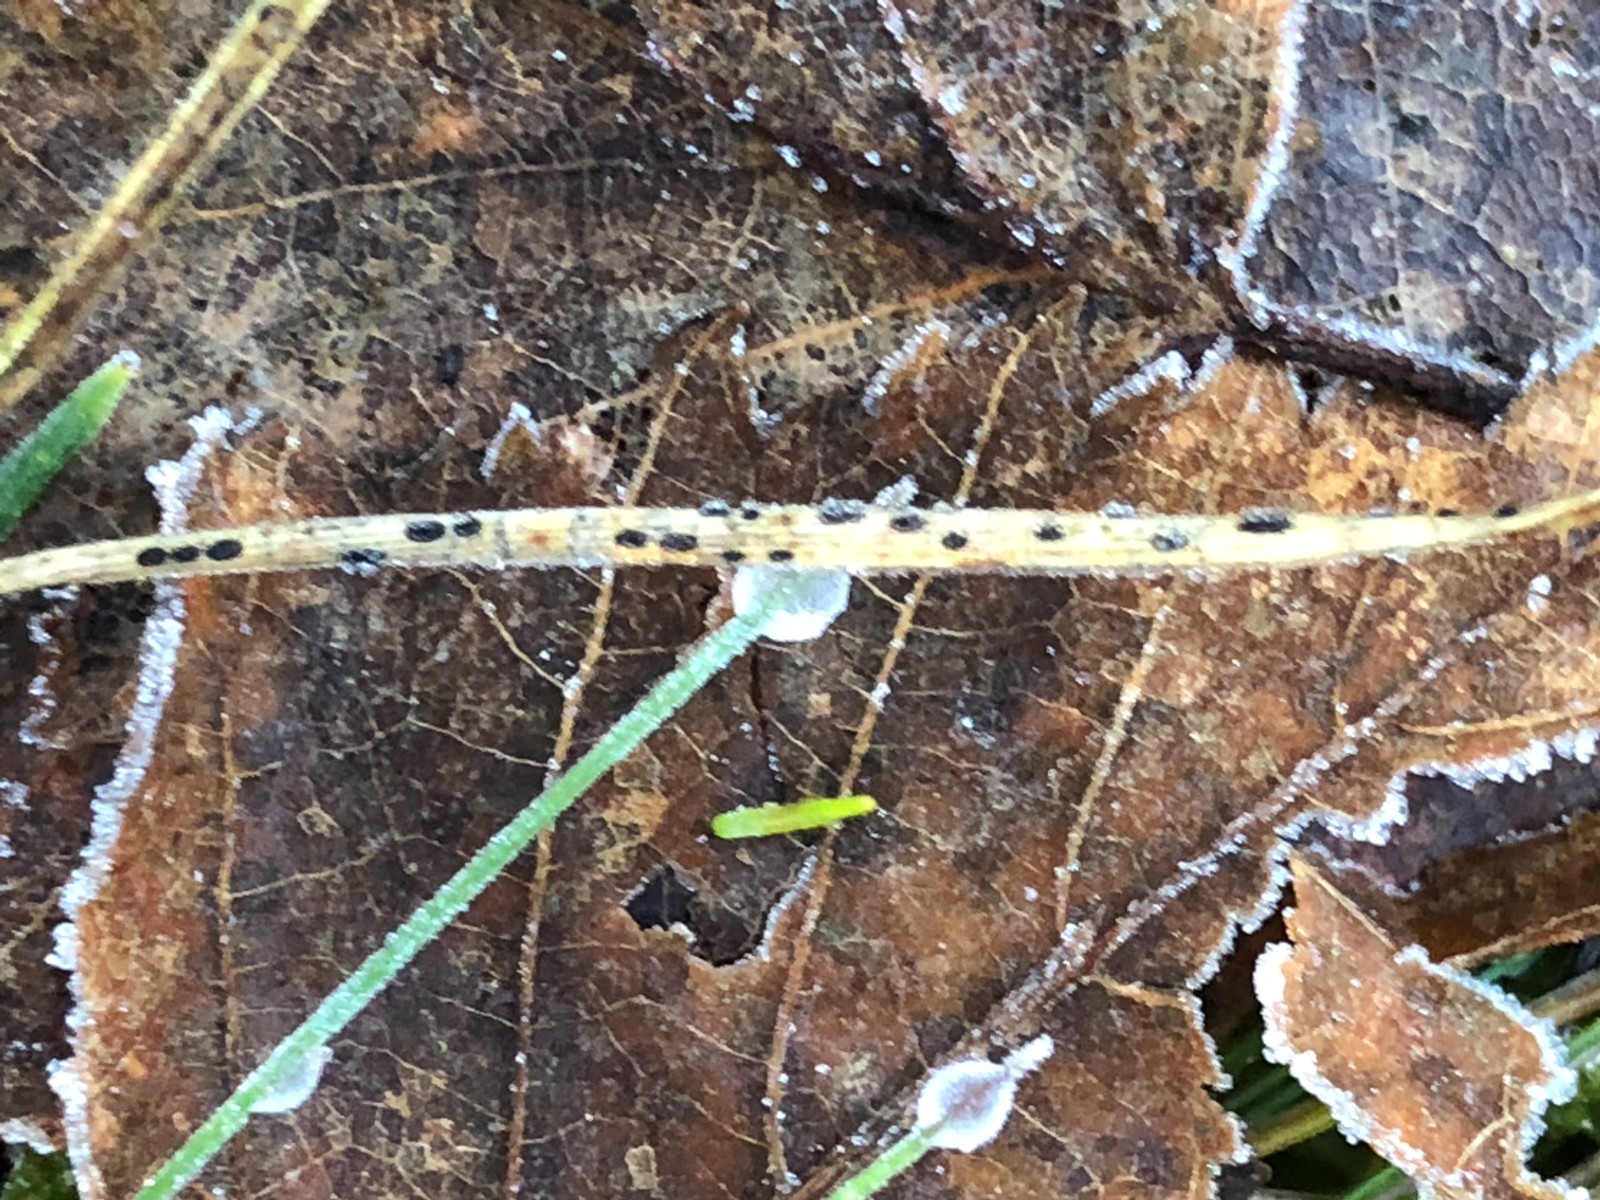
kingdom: Fungi
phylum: Ascomycota
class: Leotiomycetes
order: Rhytismatales
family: Rhytismataceae
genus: Lophodermium
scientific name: Lophodermium pinastri
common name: fyrre-fureplet
